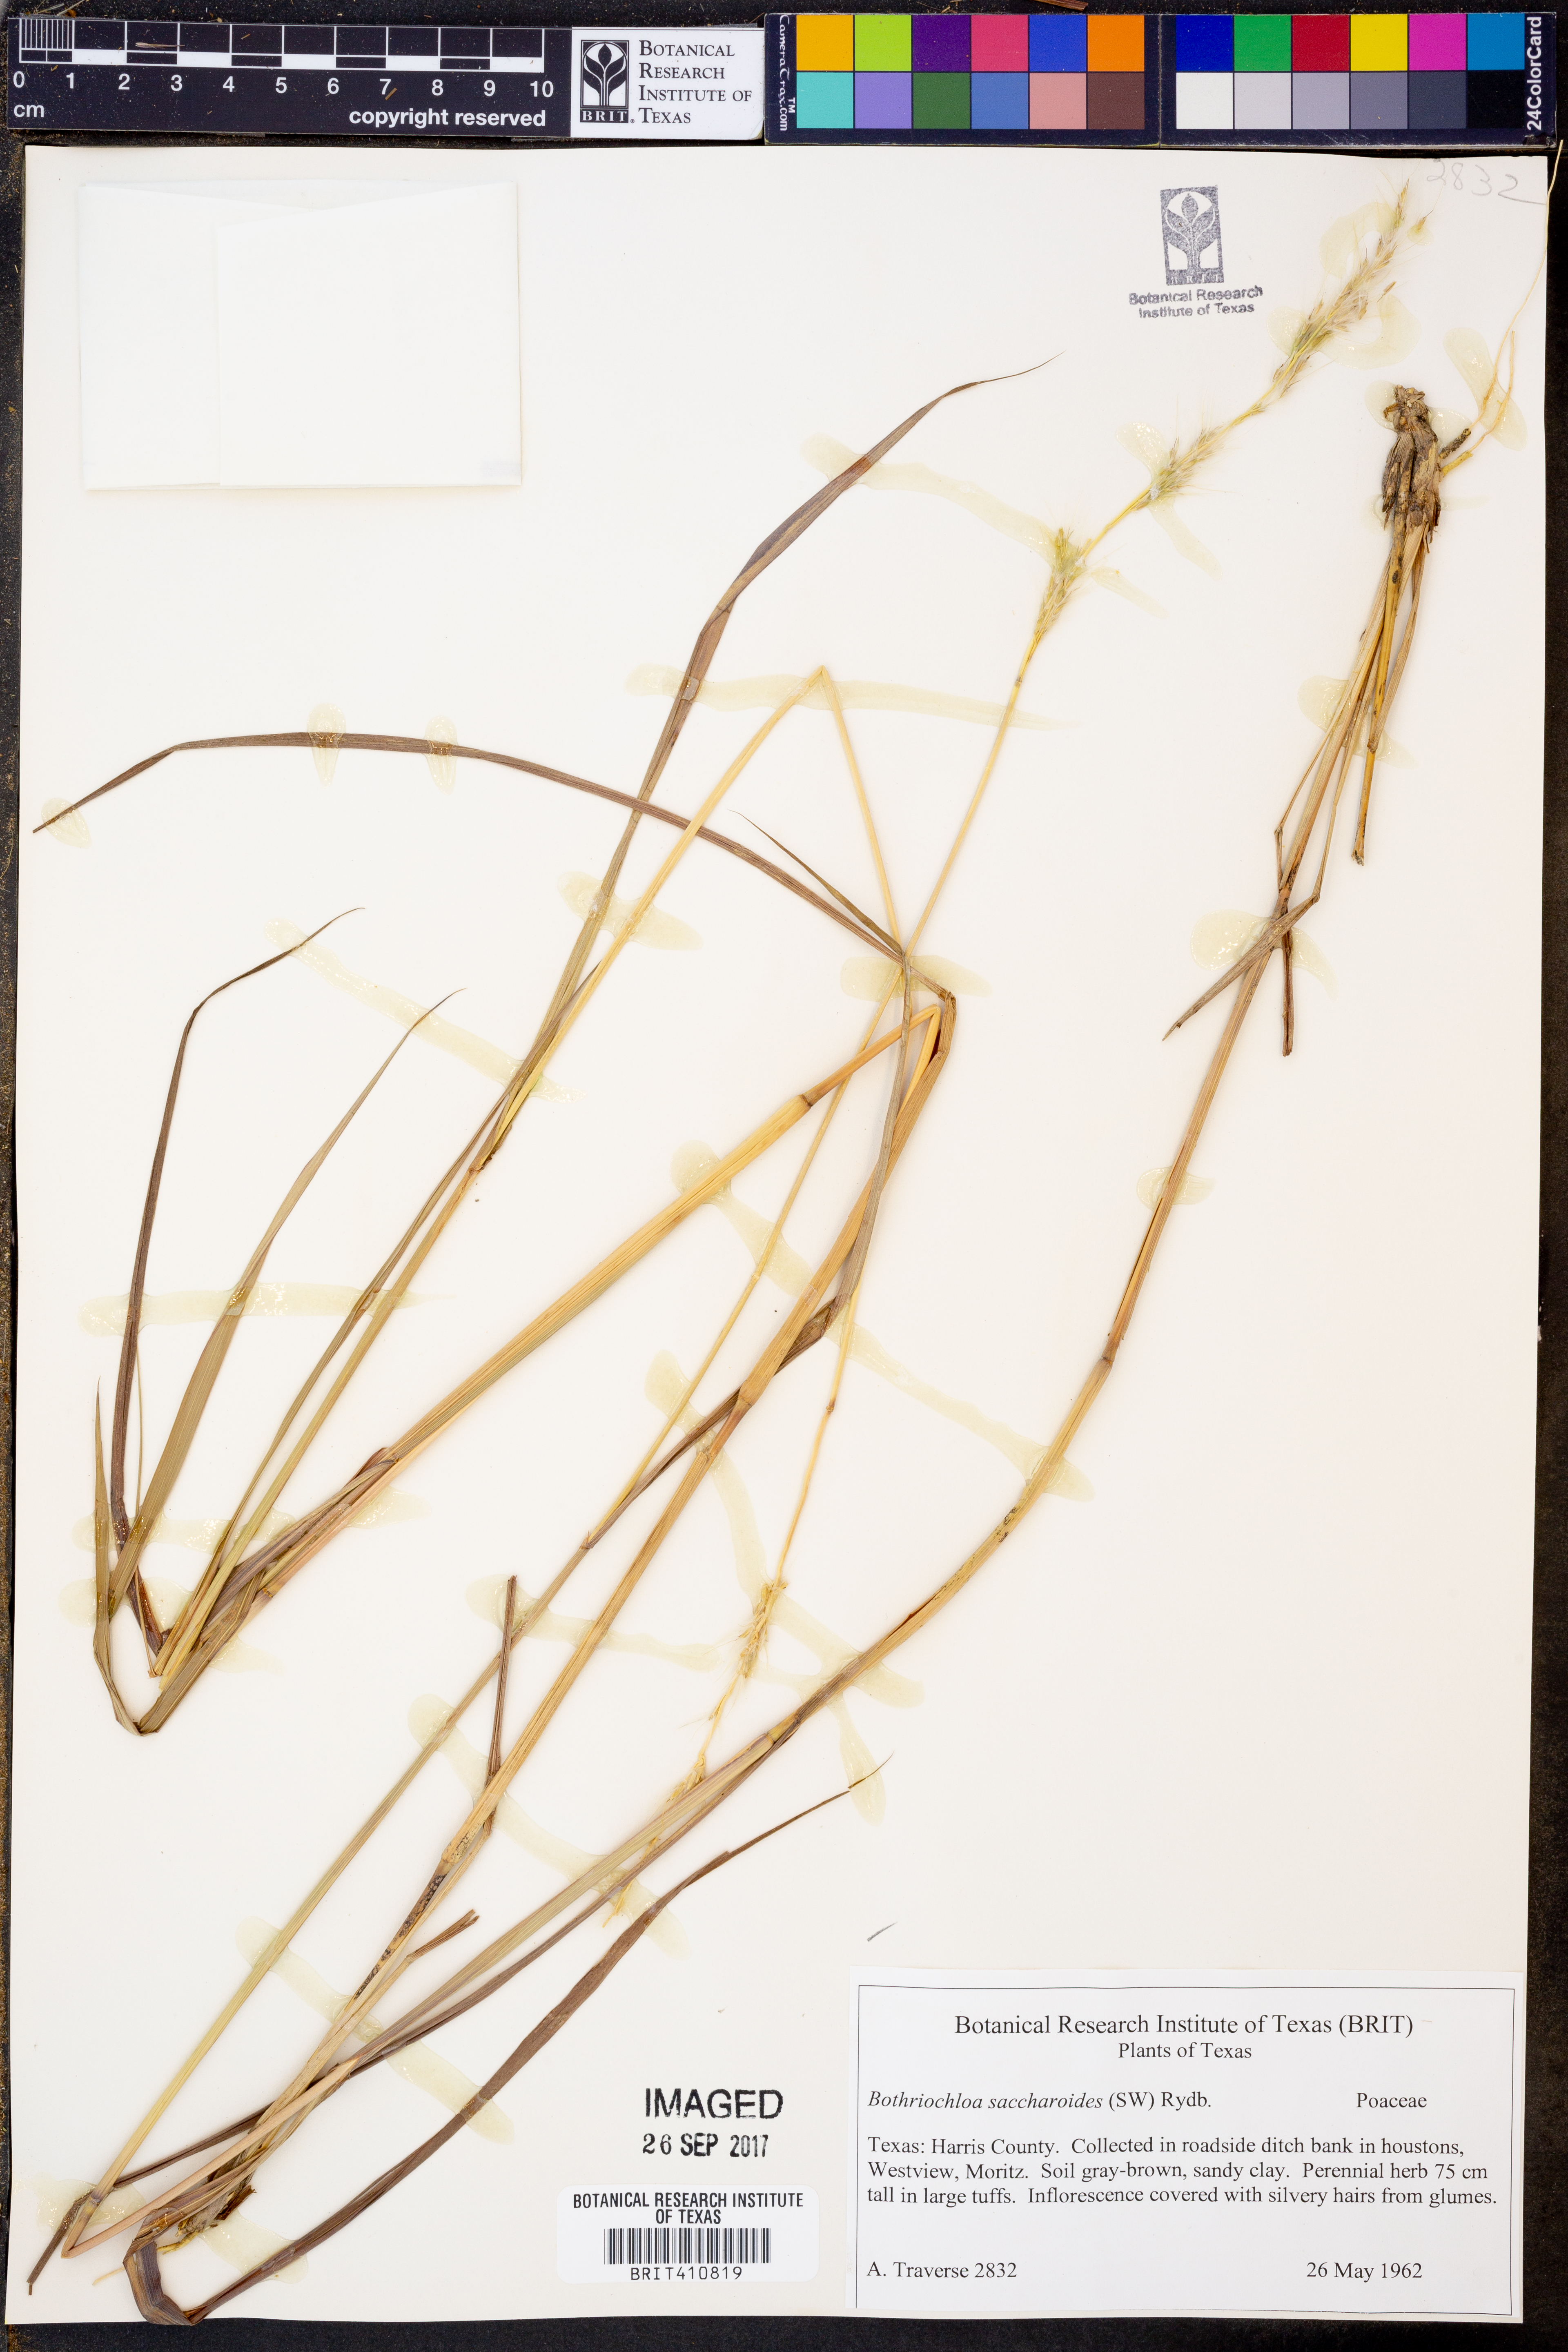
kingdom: Plantae
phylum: Tracheophyta
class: Liliopsida
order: Poales
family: Poaceae
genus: Bothriochloa
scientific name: Bothriochloa saccharoides
